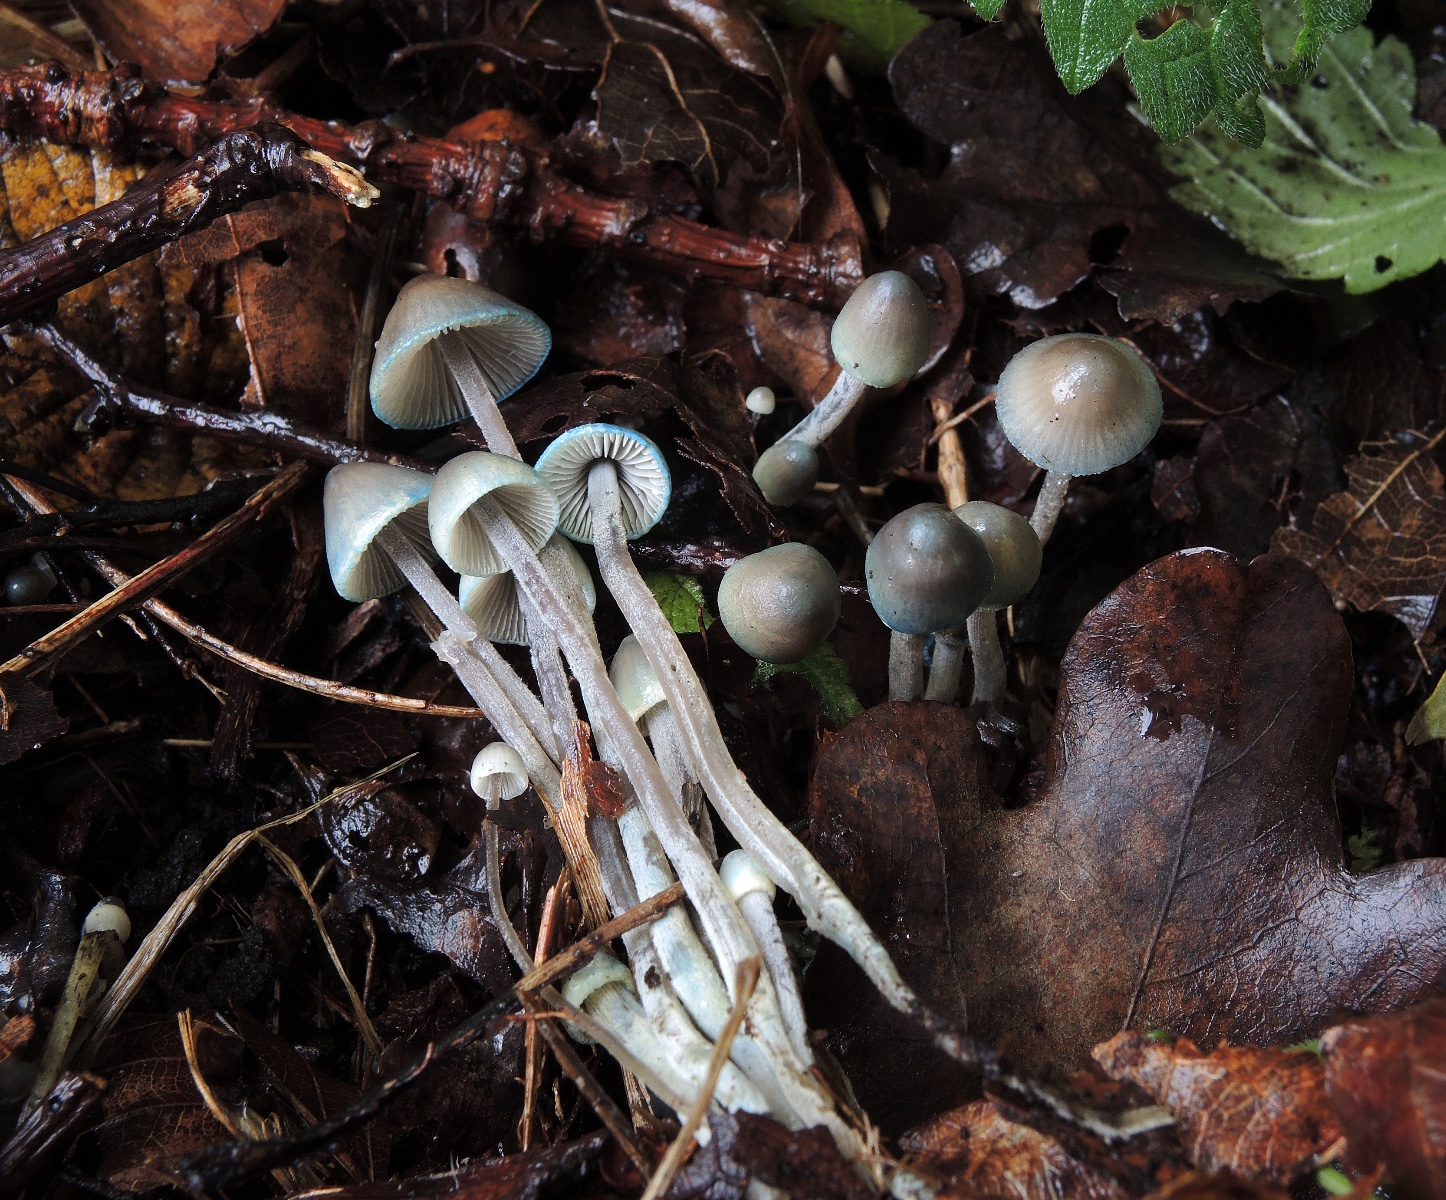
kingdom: Fungi
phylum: Basidiomycota
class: Agaricomycetes
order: Agaricales
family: Mycenaceae
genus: Mycena
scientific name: Mycena amicta
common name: iris-huesvamp
